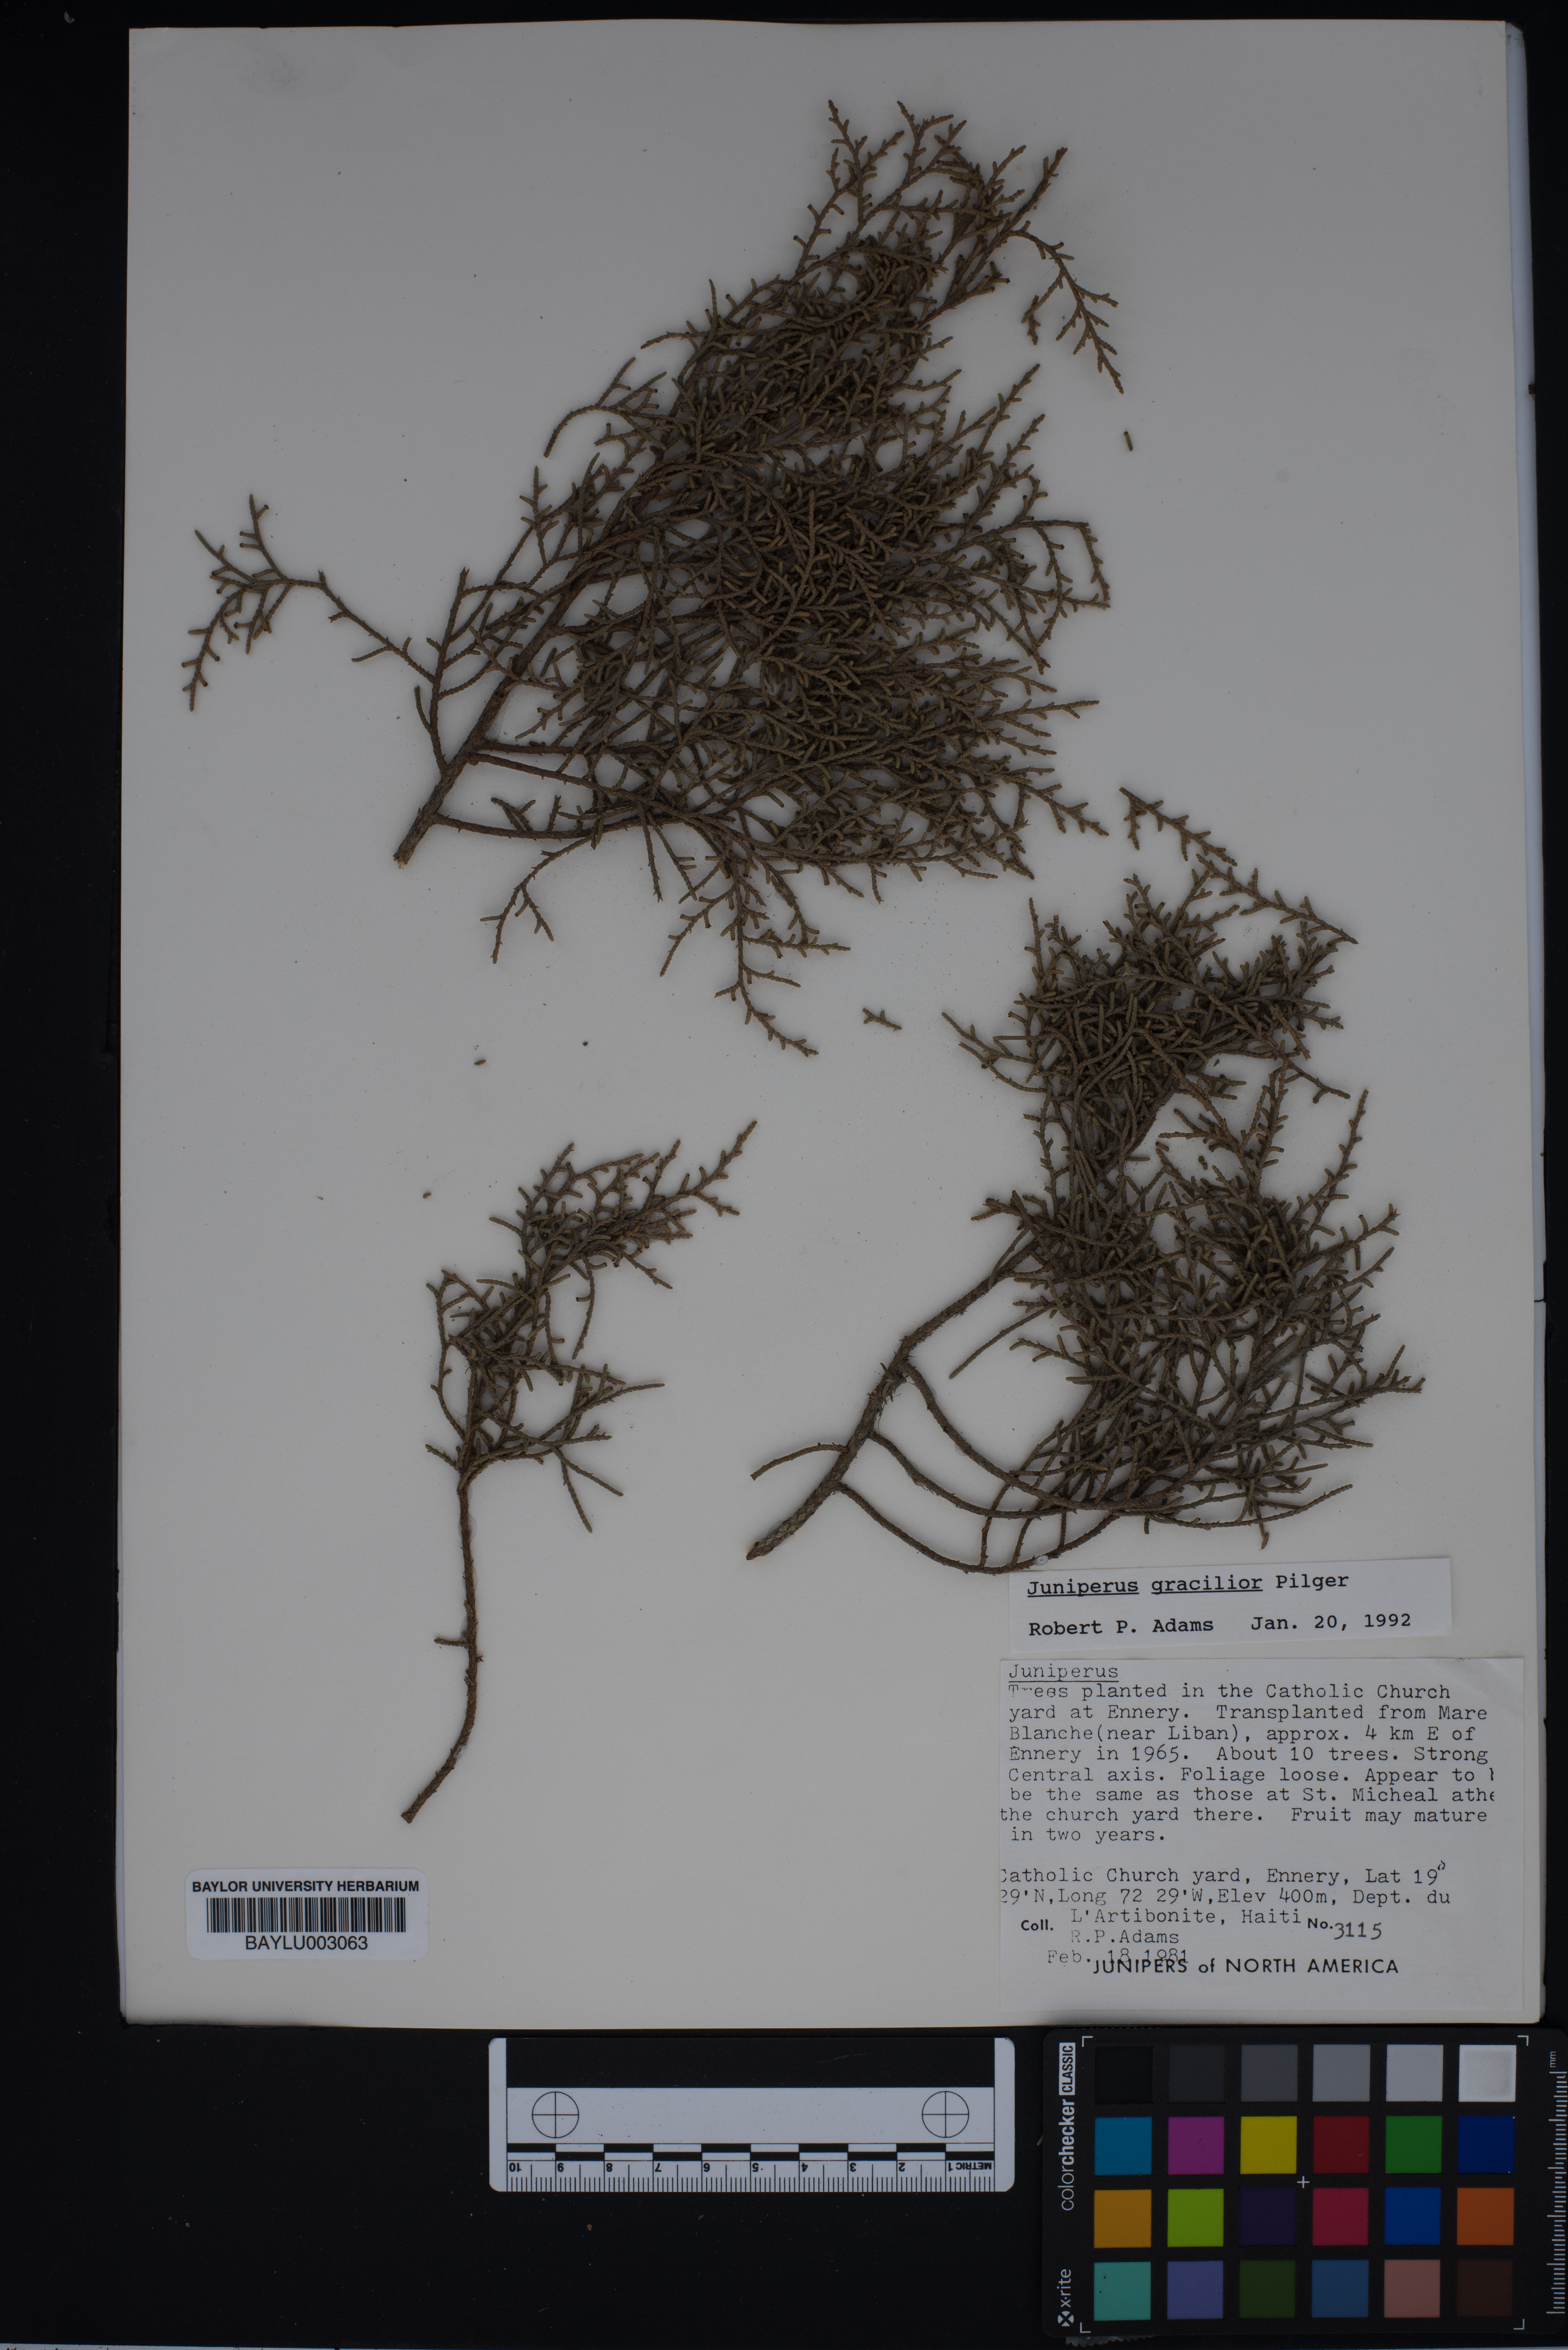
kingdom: Plantae
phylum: Tracheophyta
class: Pinopsida
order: Pinales
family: Cupressaceae
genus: Juniperus
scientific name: Juniperus gracilior
